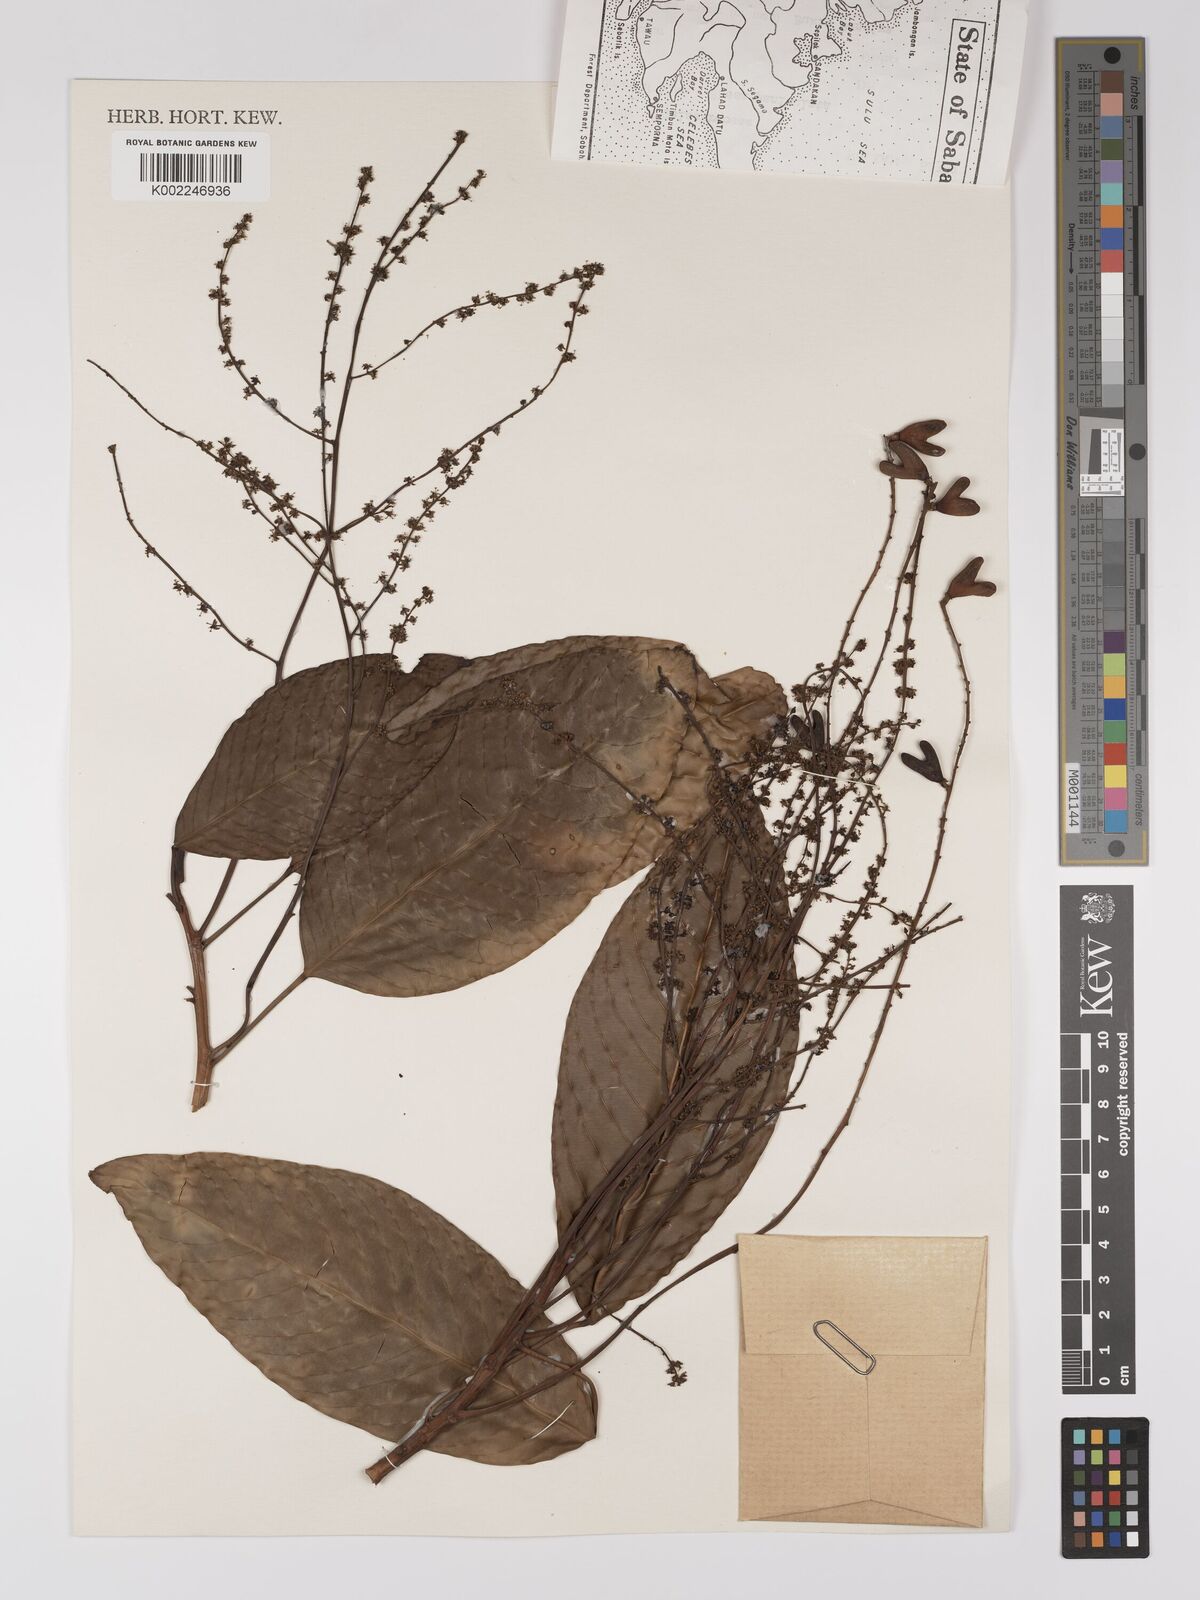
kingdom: Plantae
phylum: Tracheophyta
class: Magnoliopsida
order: Malpighiales
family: Centroplacaceae
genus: Bhesa
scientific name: Bhesa paniculata
